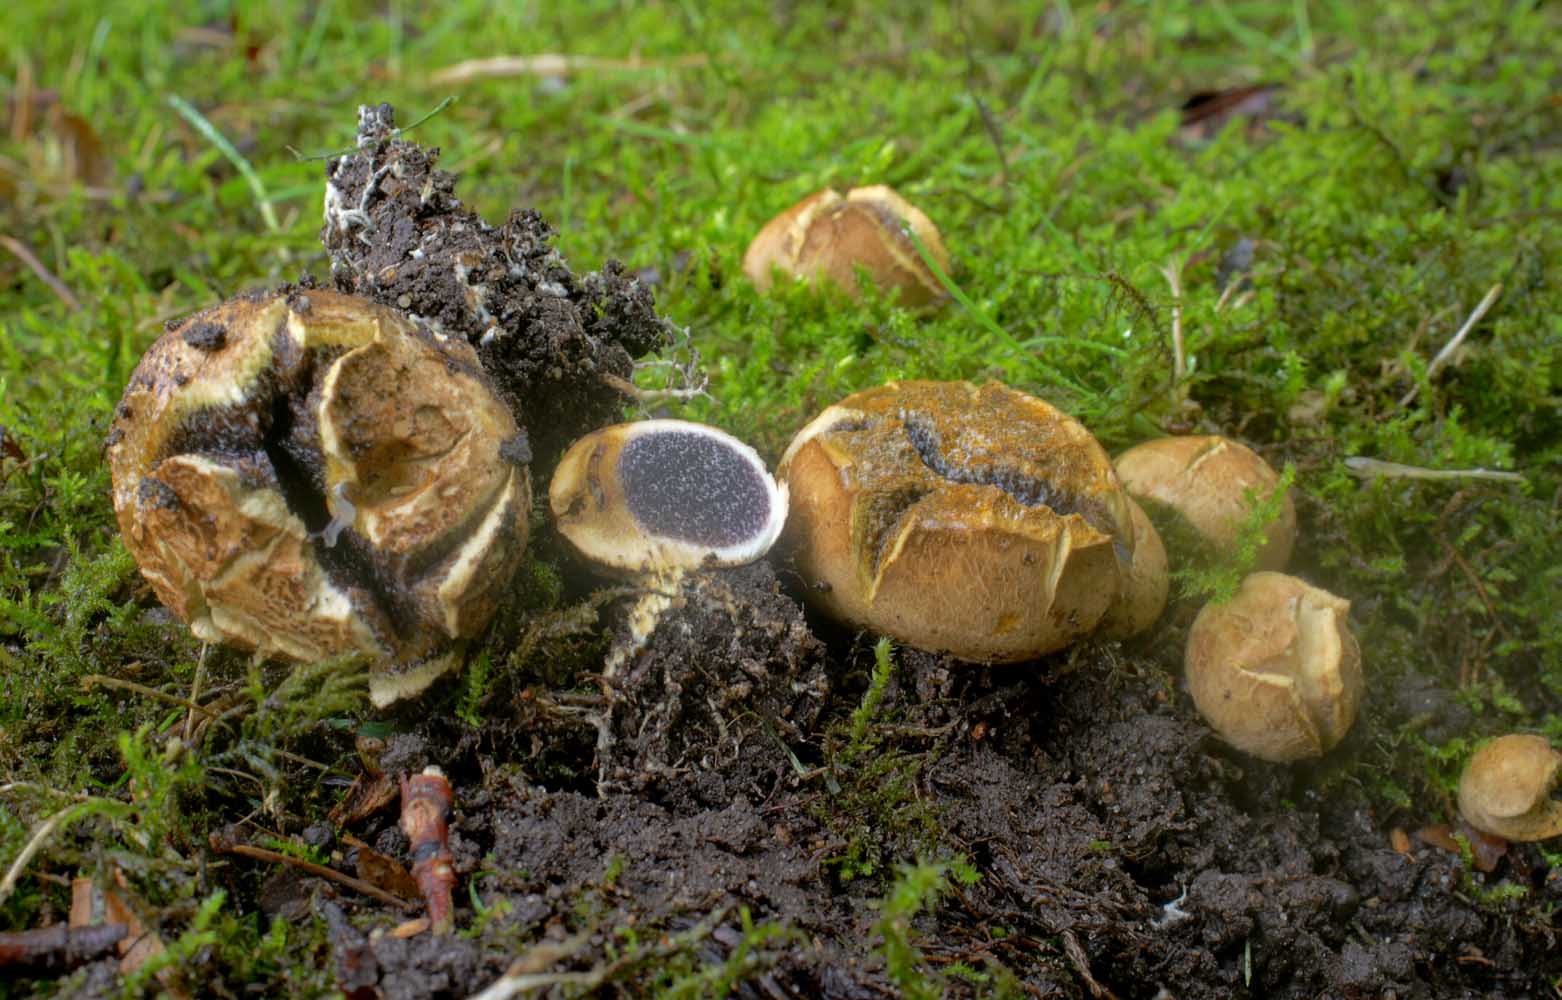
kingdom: Fungi
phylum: Basidiomycota
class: Agaricomycetes
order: Boletales
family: Sclerodermataceae
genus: Scleroderma
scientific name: Scleroderma bovista
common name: bovist-bruskbold
